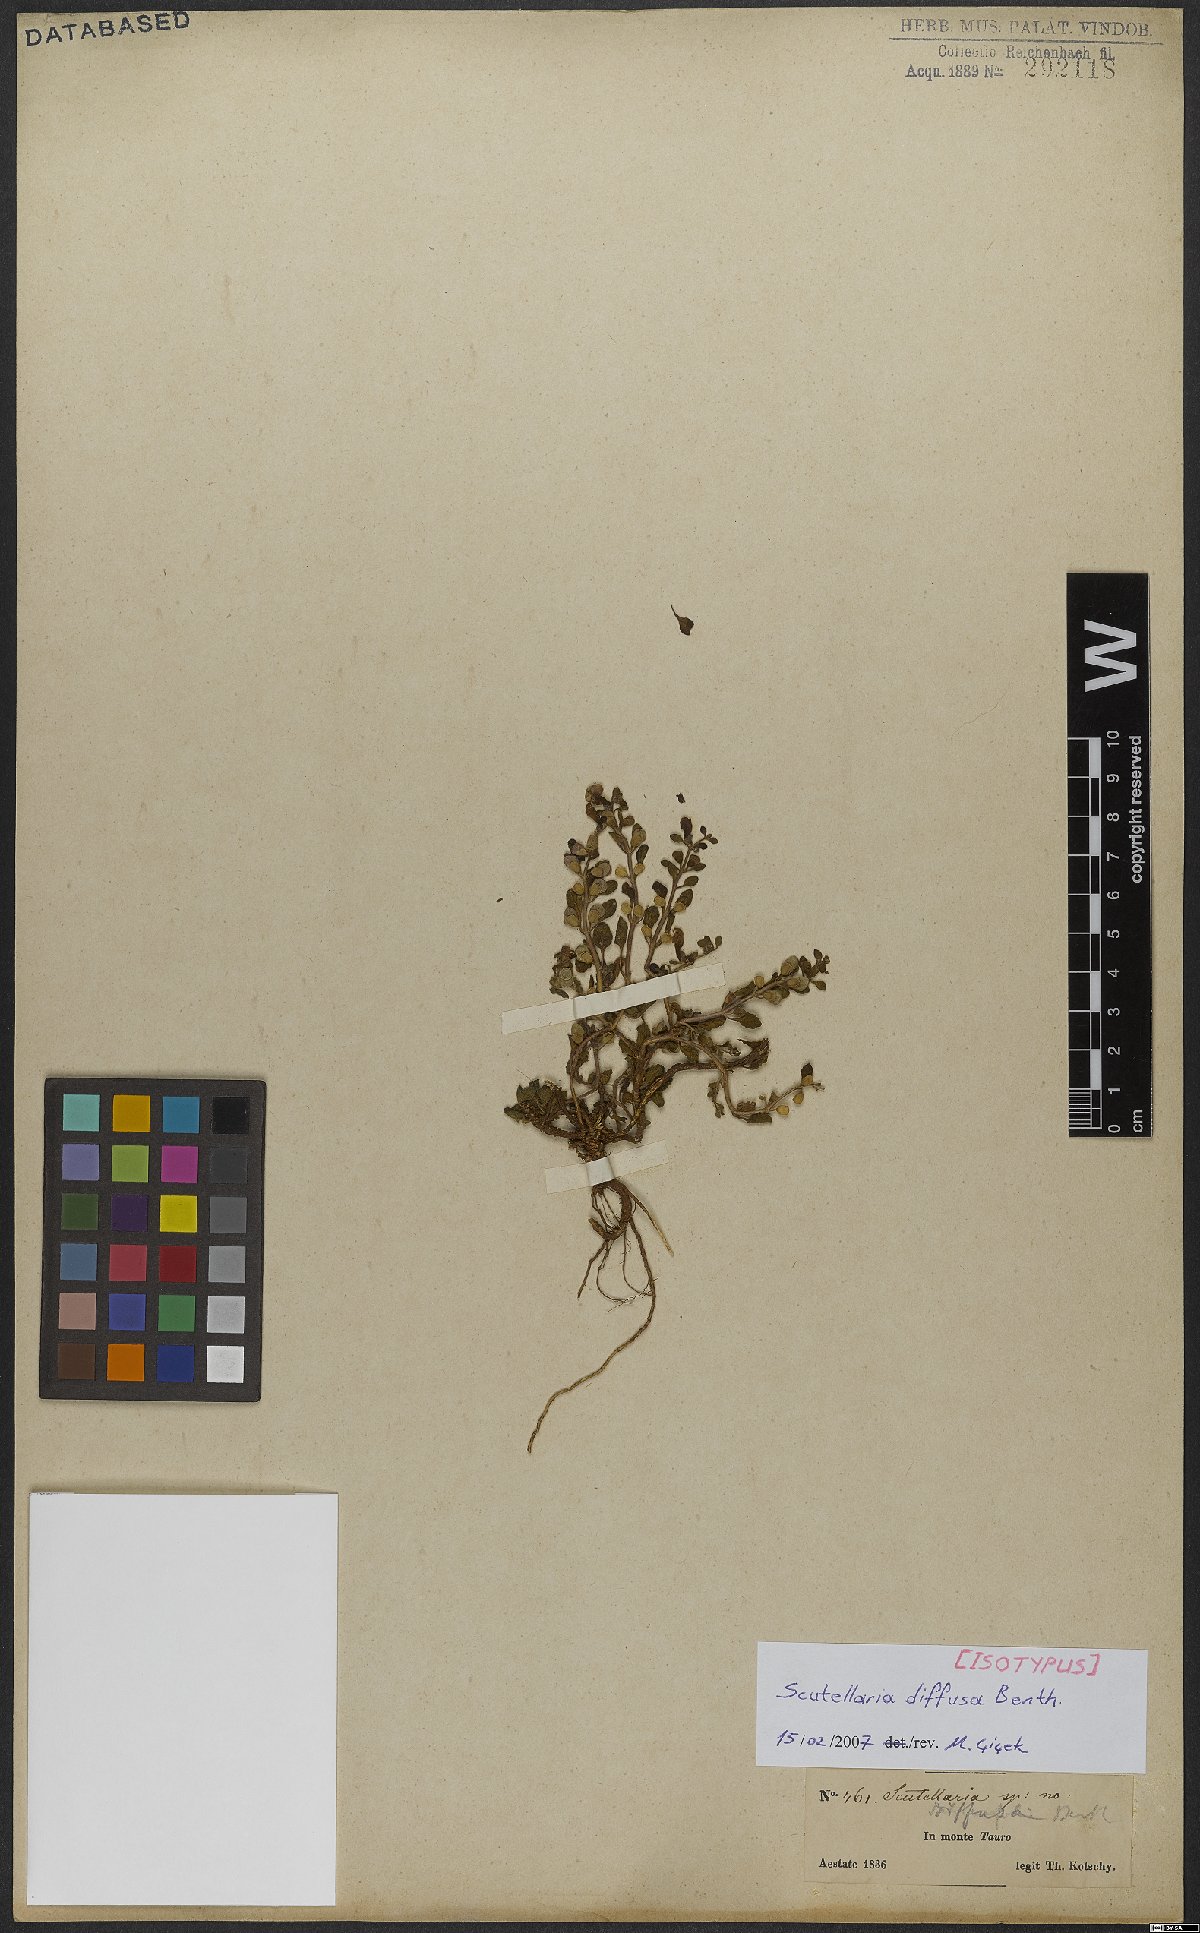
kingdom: Plantae
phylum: Tracheophyta
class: Magnoliopsida
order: Lamiales
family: Lamiaceae
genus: Scutellaria
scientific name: Scutellaria diffusa
